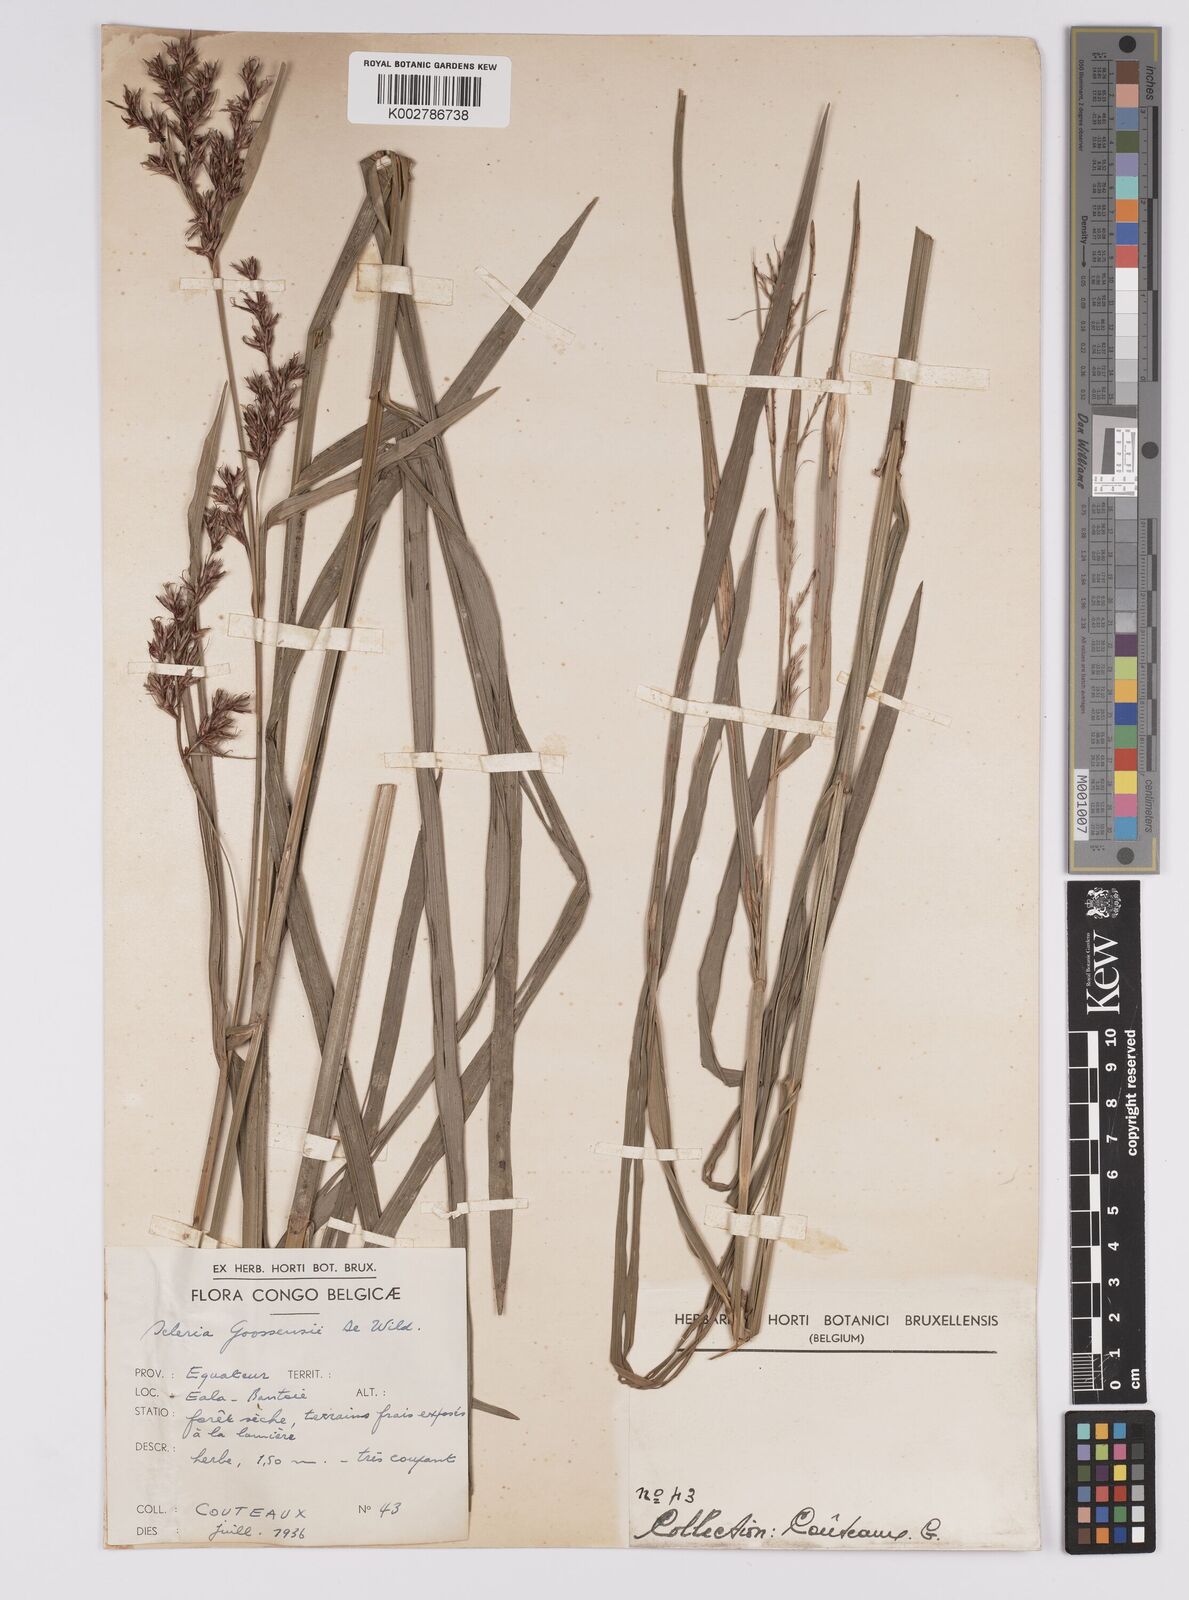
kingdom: Plantae
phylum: Tracheophyta
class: Liliopsida
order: Poales
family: Cyperaceae
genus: Scleria
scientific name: Scleria goossensii
